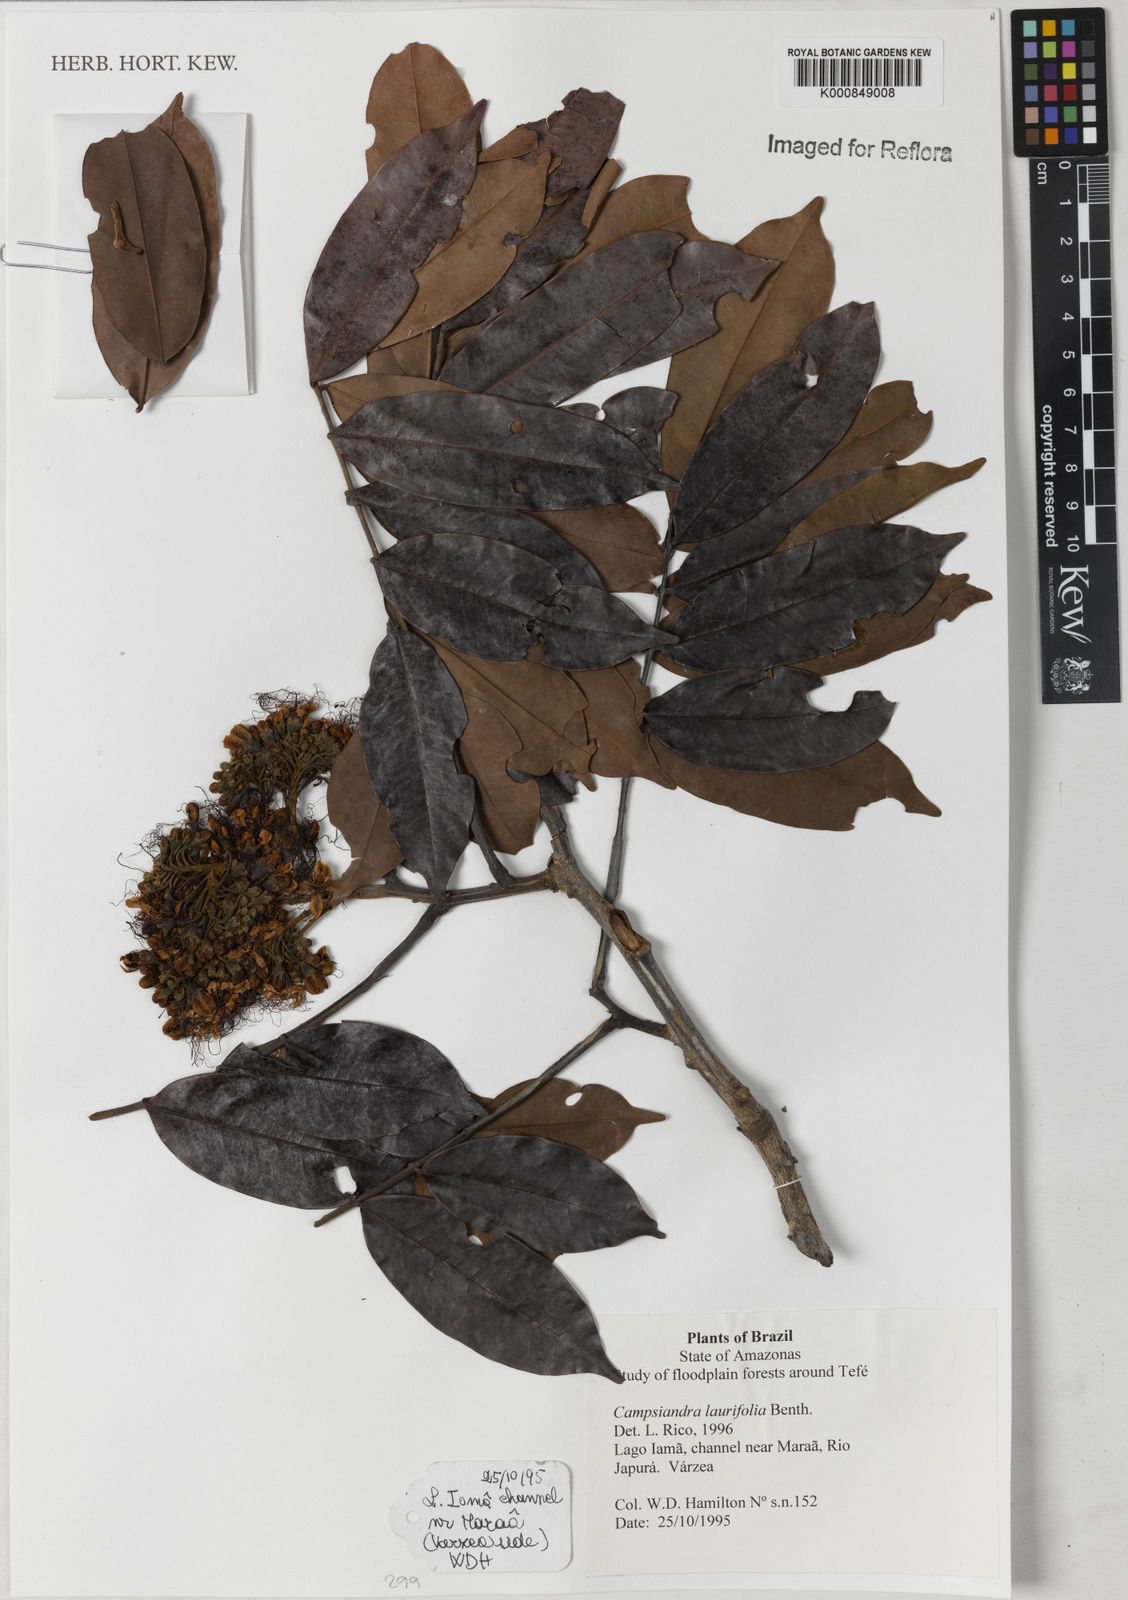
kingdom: Plantae
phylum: Tracheophyta
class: Magnoliopsida
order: Fabales
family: Fabaceae
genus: Campsiandra
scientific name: Campsiandra laurifolia
